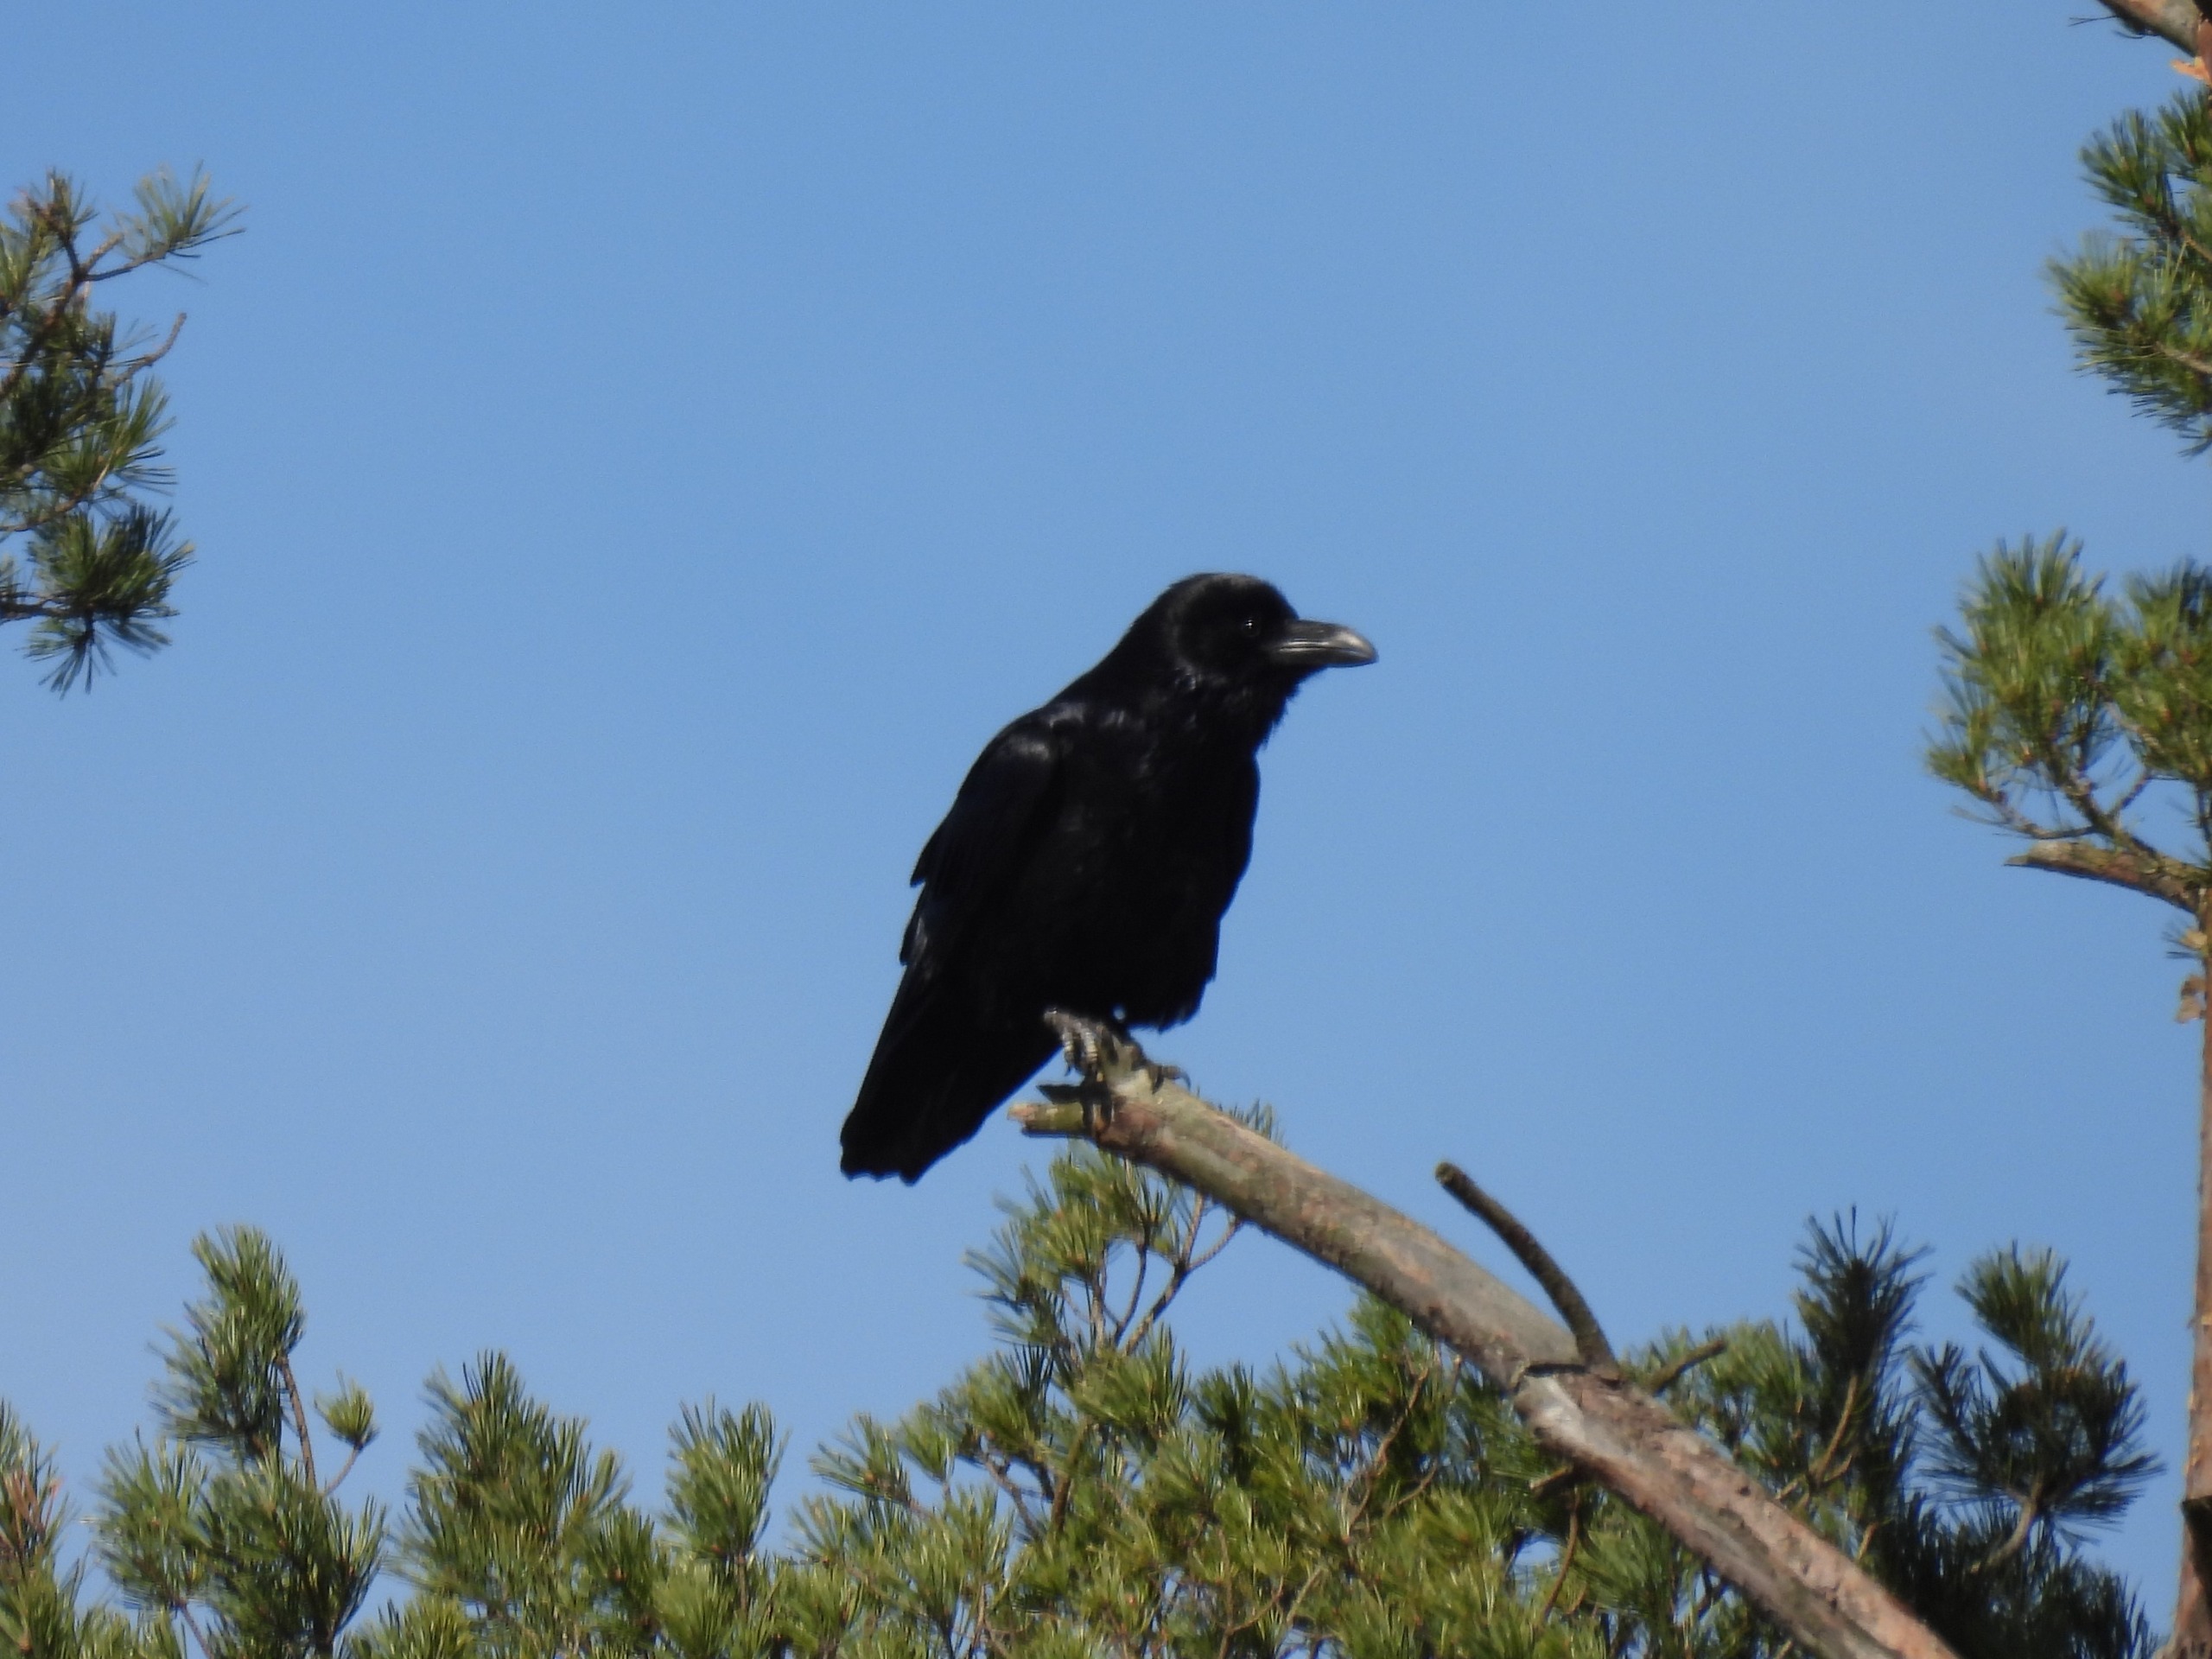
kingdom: Animalia
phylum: Chordata
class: Aves
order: Passeriformes
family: Corvidae
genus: Corvus
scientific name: Corvus corax
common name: Ravn
